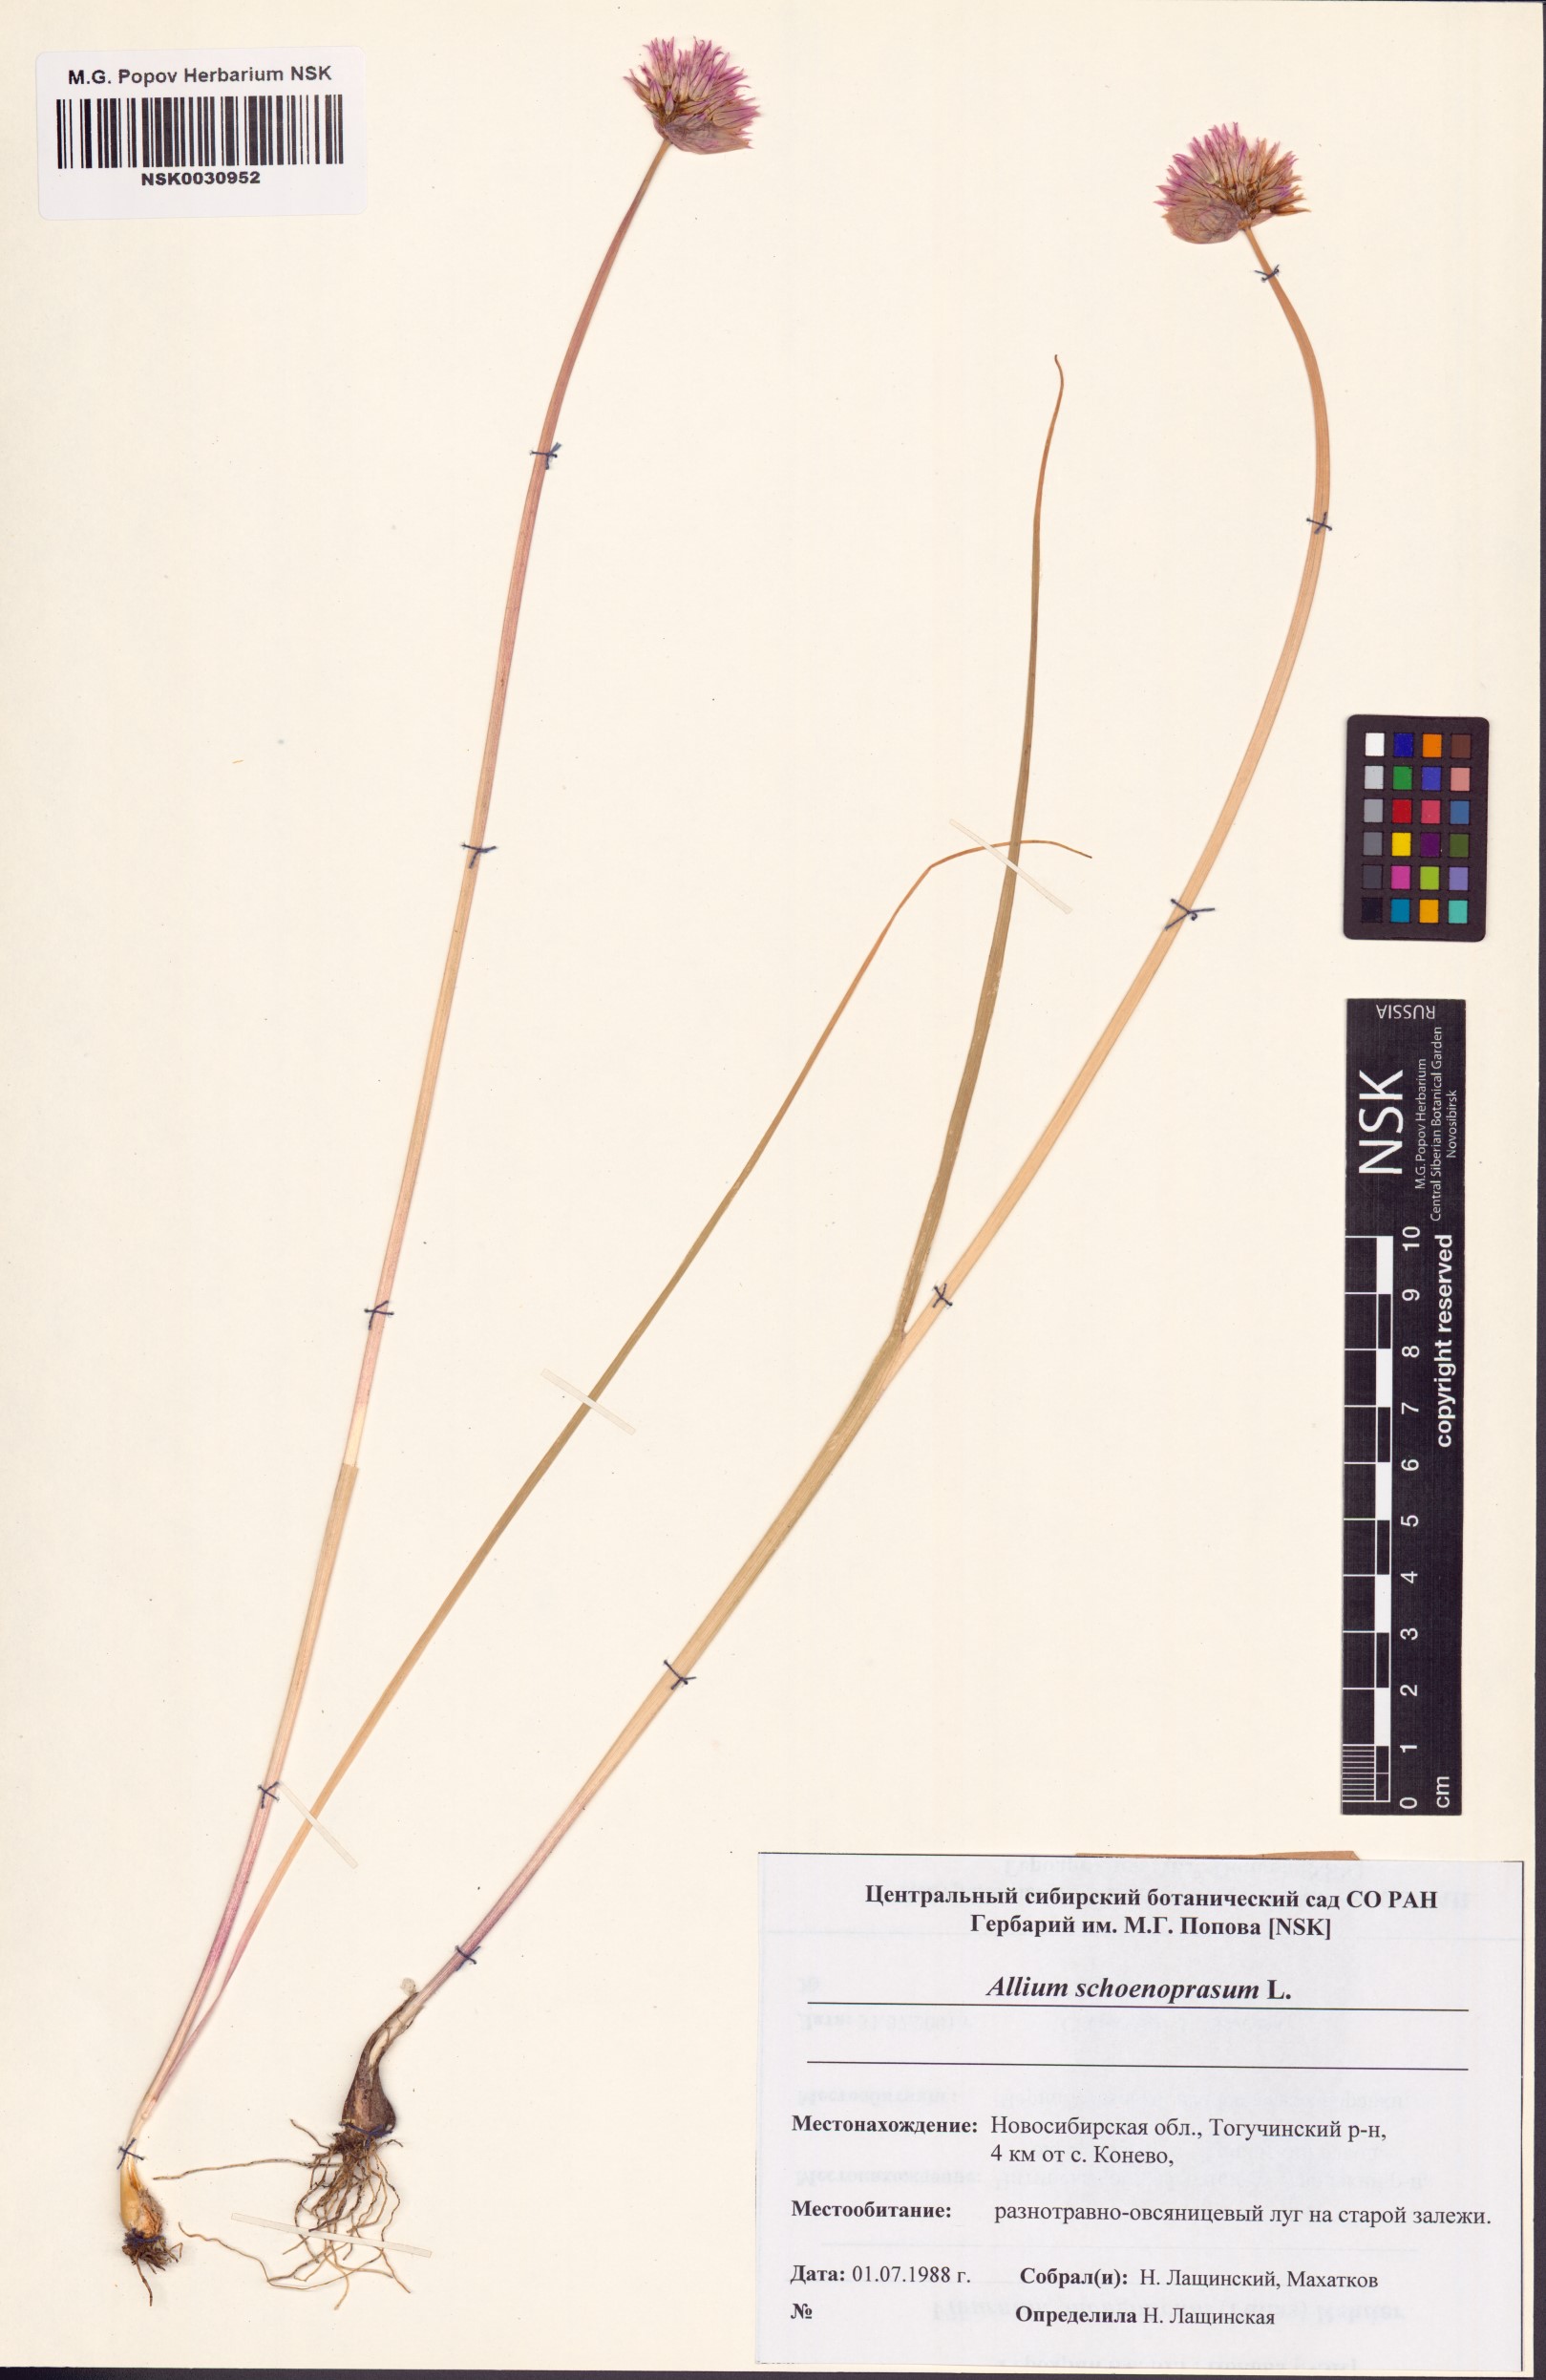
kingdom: Plantae
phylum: Tracheophyta
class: Liliopsida
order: Asparagales
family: Amaryllidaceae
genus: Allium
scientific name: Allium schoenoprasum
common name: Chives
